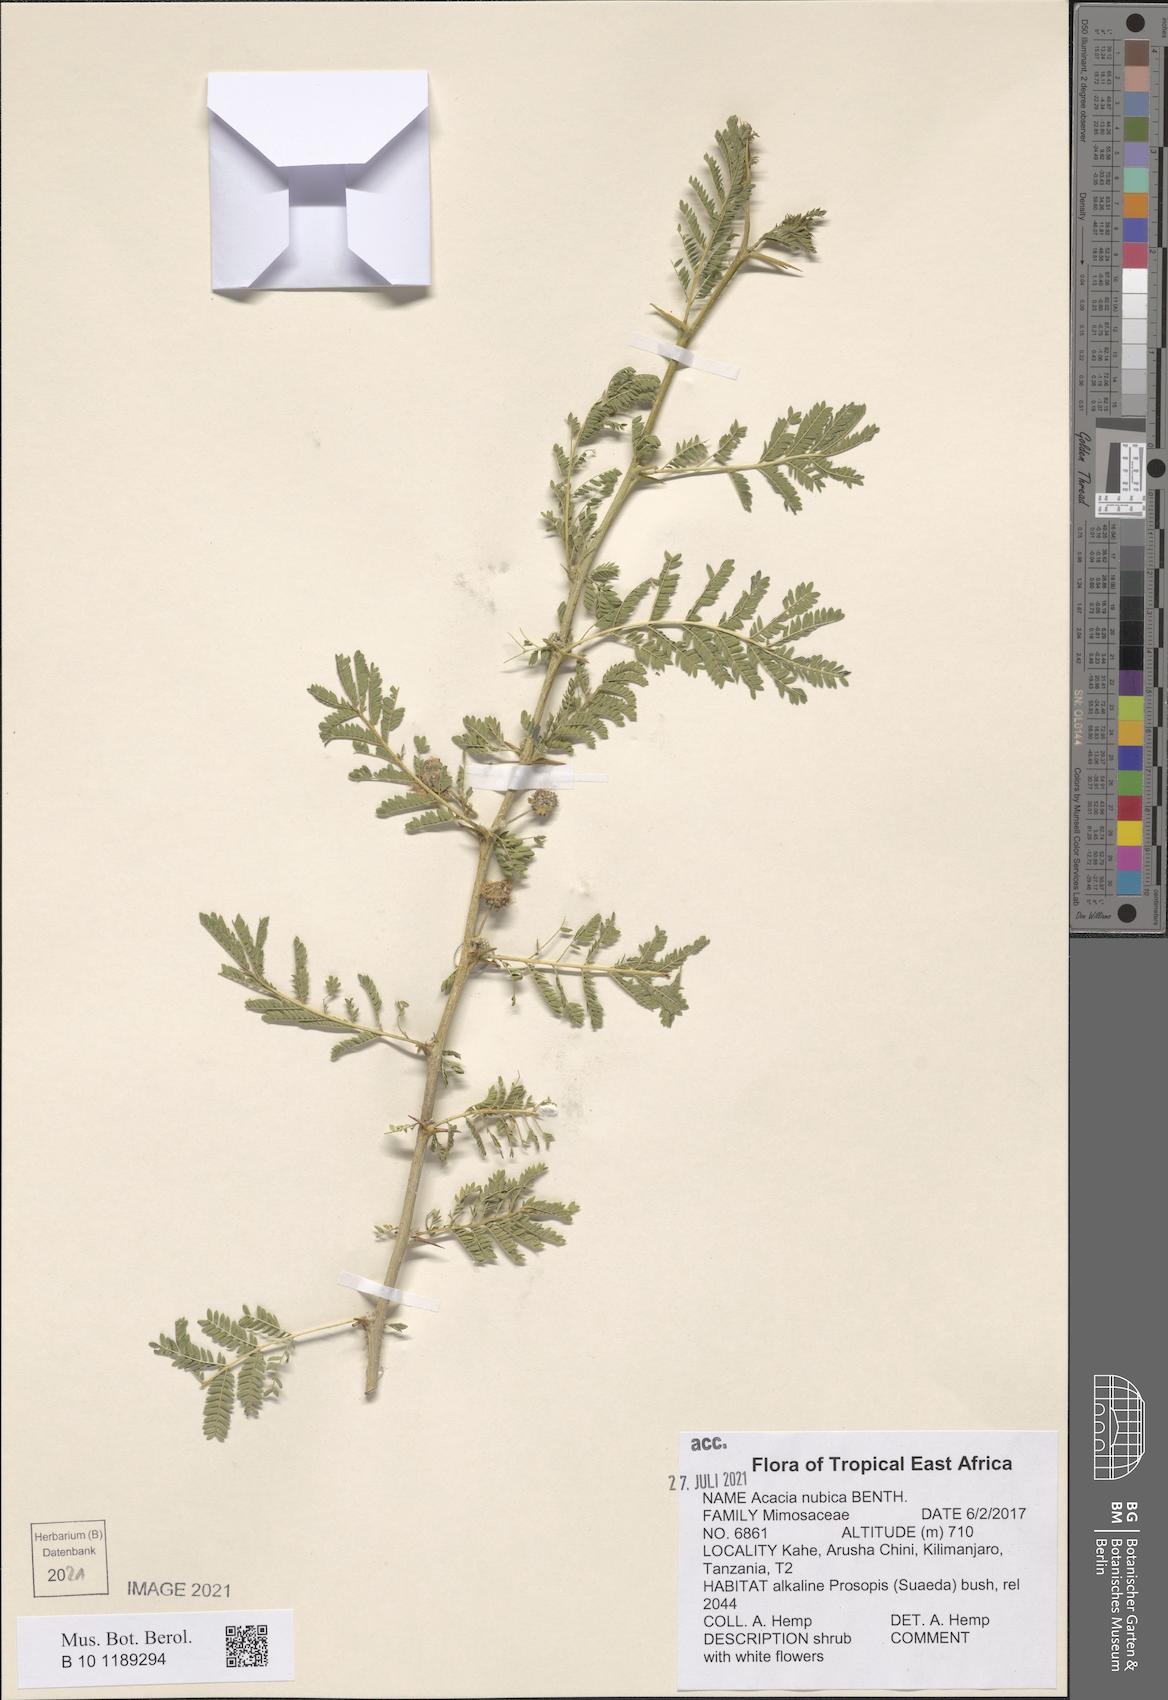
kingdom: Plantae
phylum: Tracheophyta
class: Magnoliopsida
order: Fabales
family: Fabaceae
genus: Vachellia
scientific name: Vachellia oerfota
